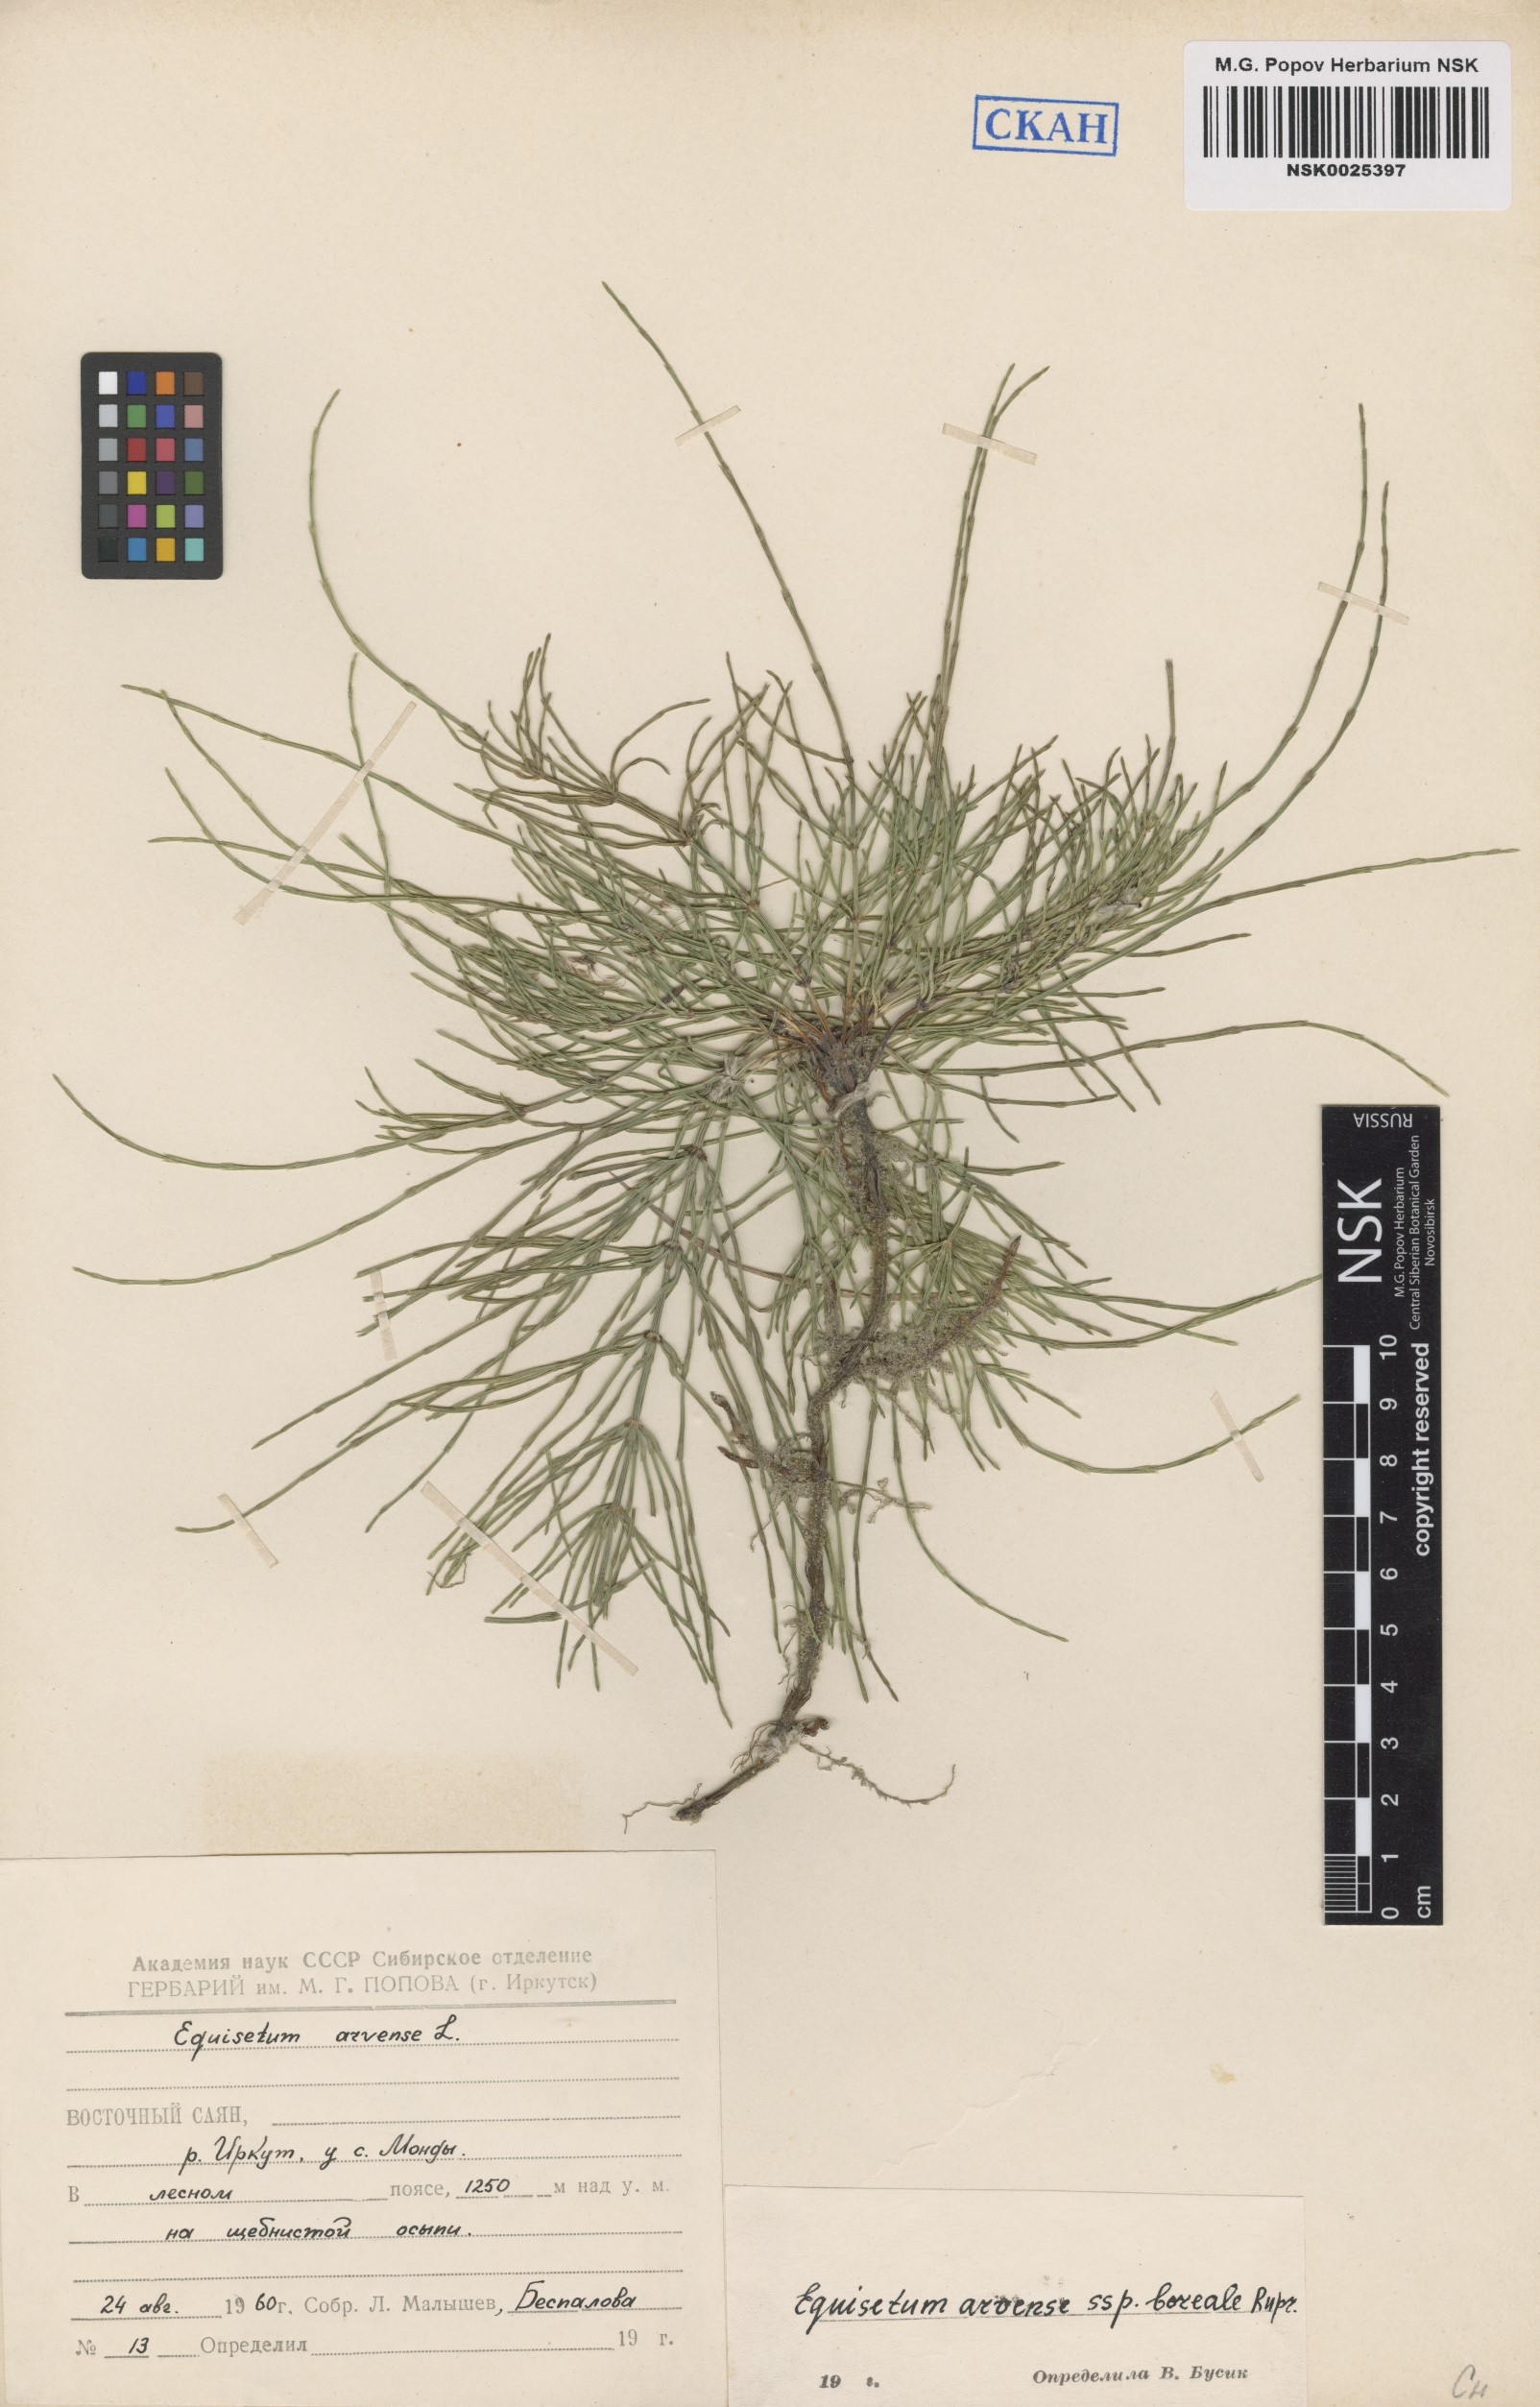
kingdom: Plantae
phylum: Tracheophyta
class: Polypodiopsida
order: Equisetales
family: Equisetaceae
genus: Equisetum
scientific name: Equisetum arvense
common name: Field horsetail
